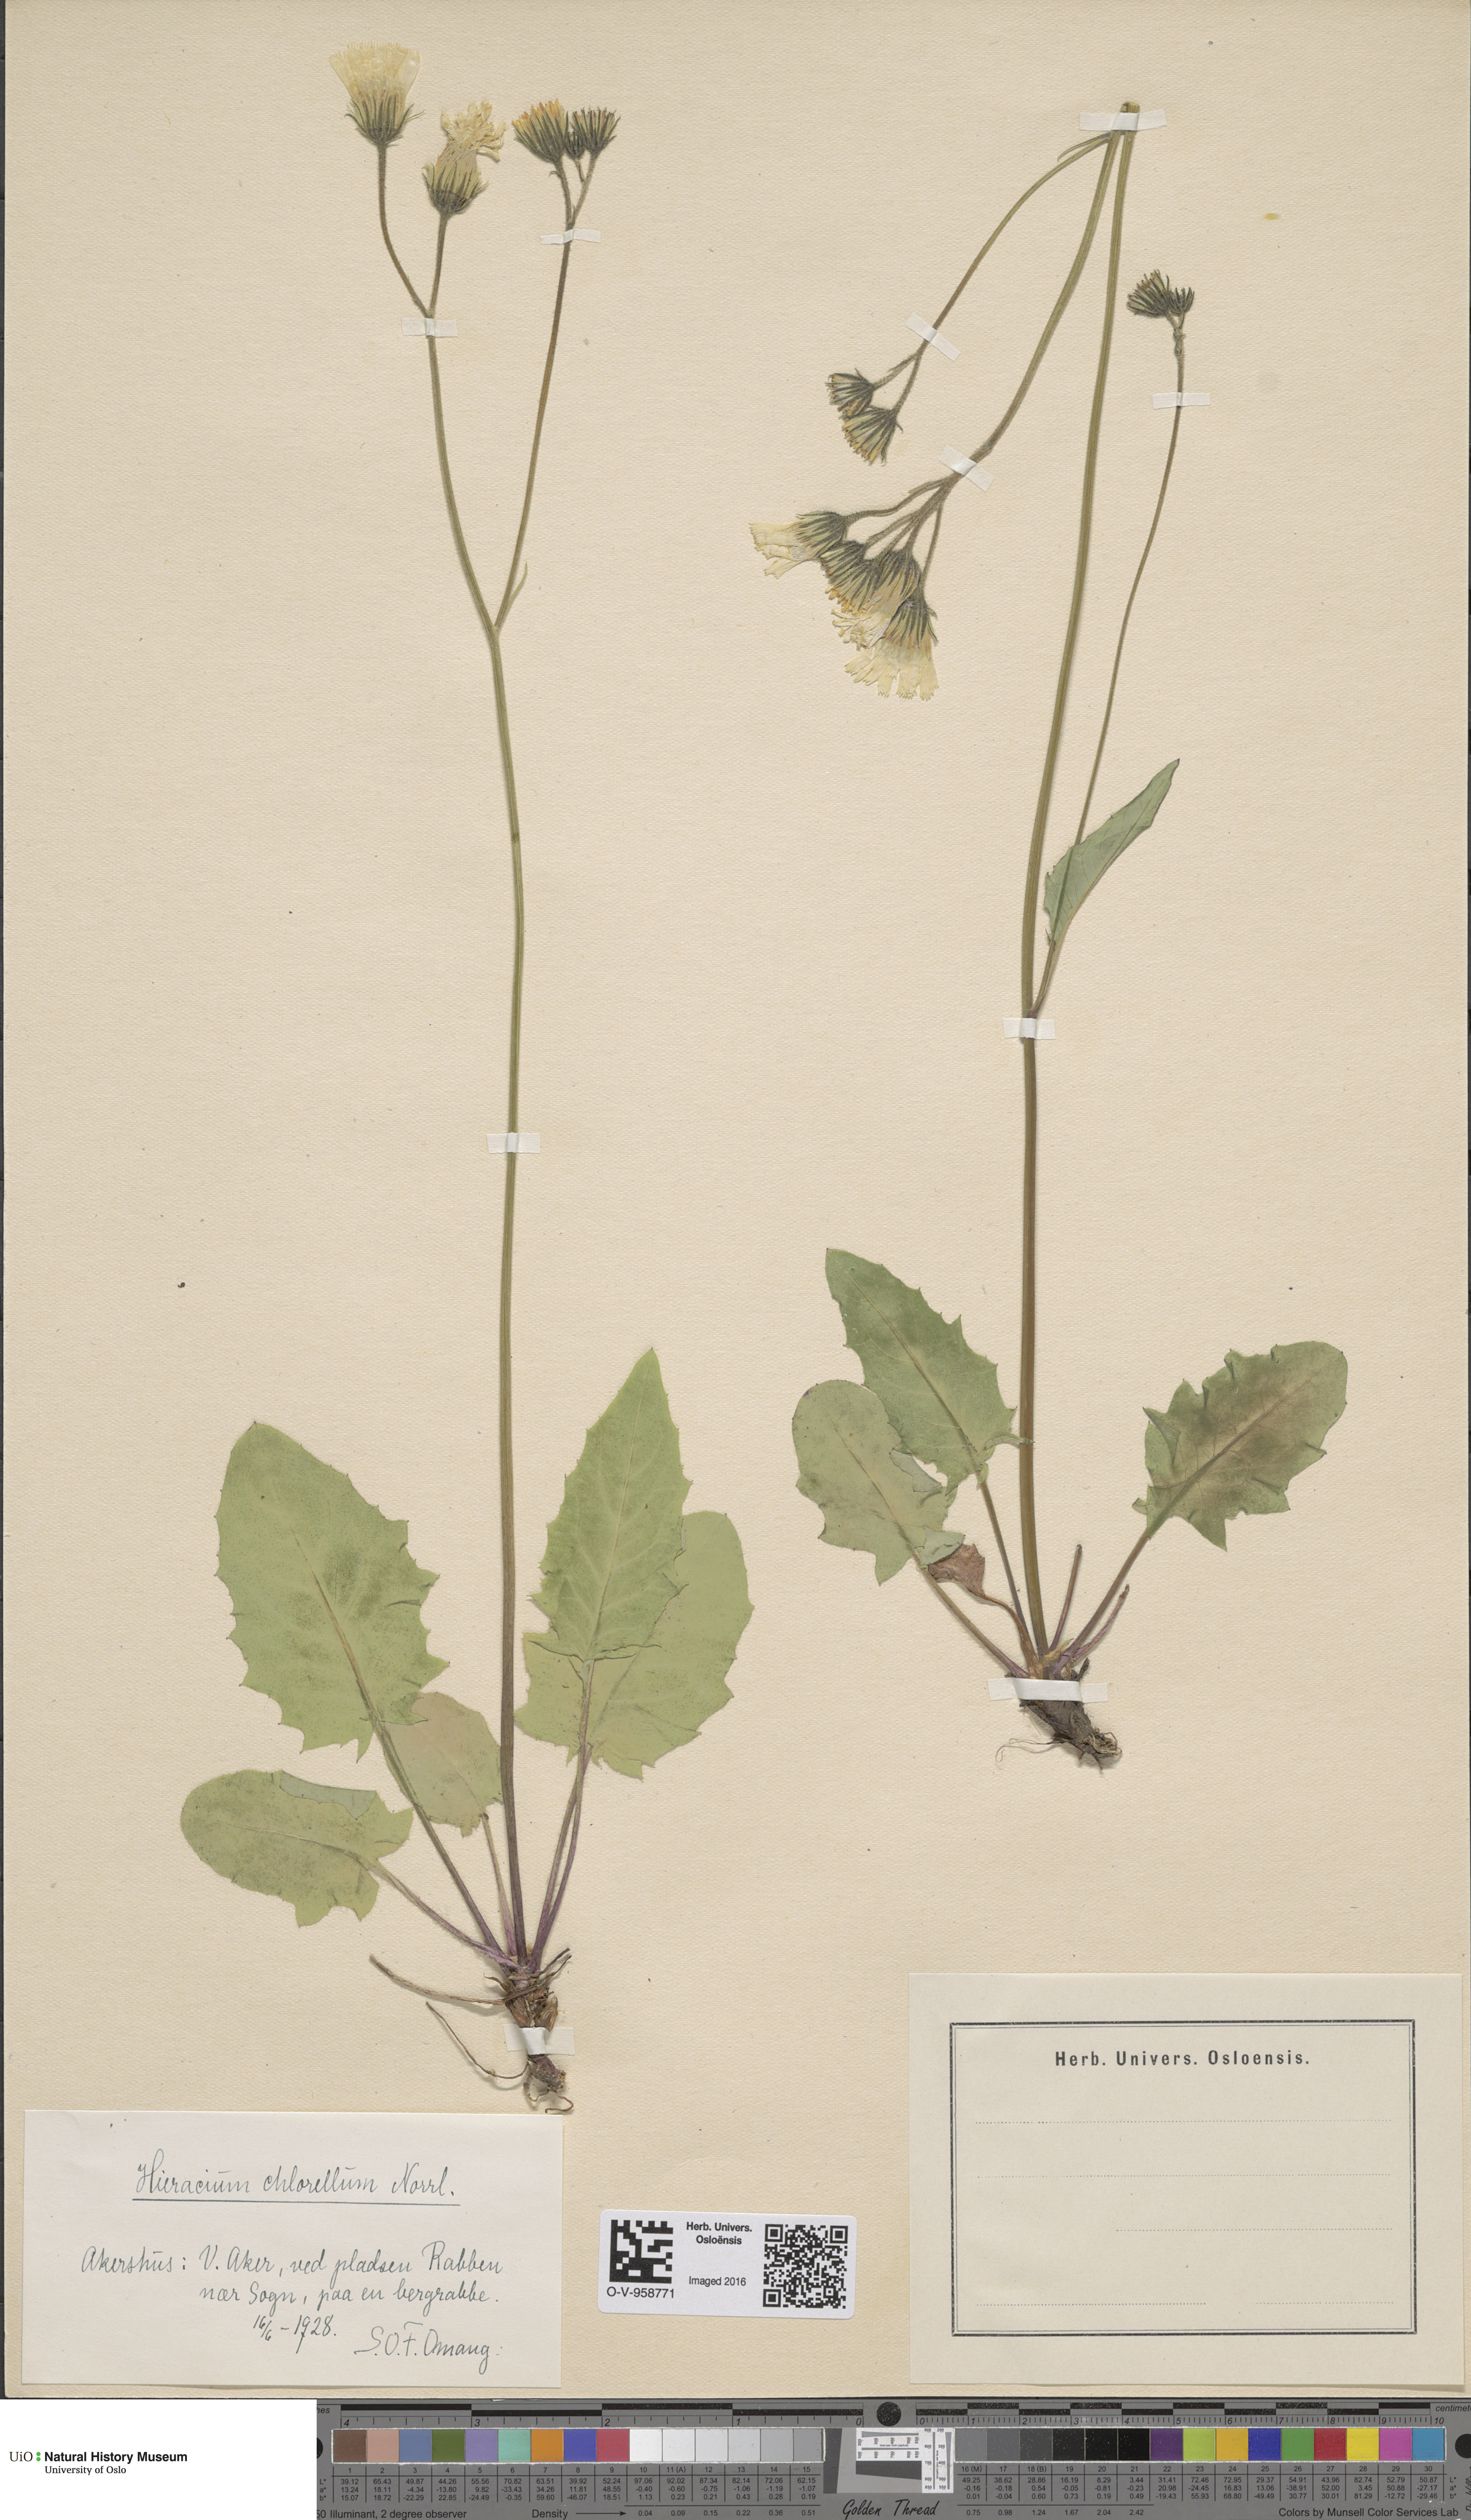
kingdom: Plantae
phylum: Tracheophyta
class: Magnoliopsida
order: Asterales
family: Asteraceae
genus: Hieracium
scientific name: Hieracium chlorellum
